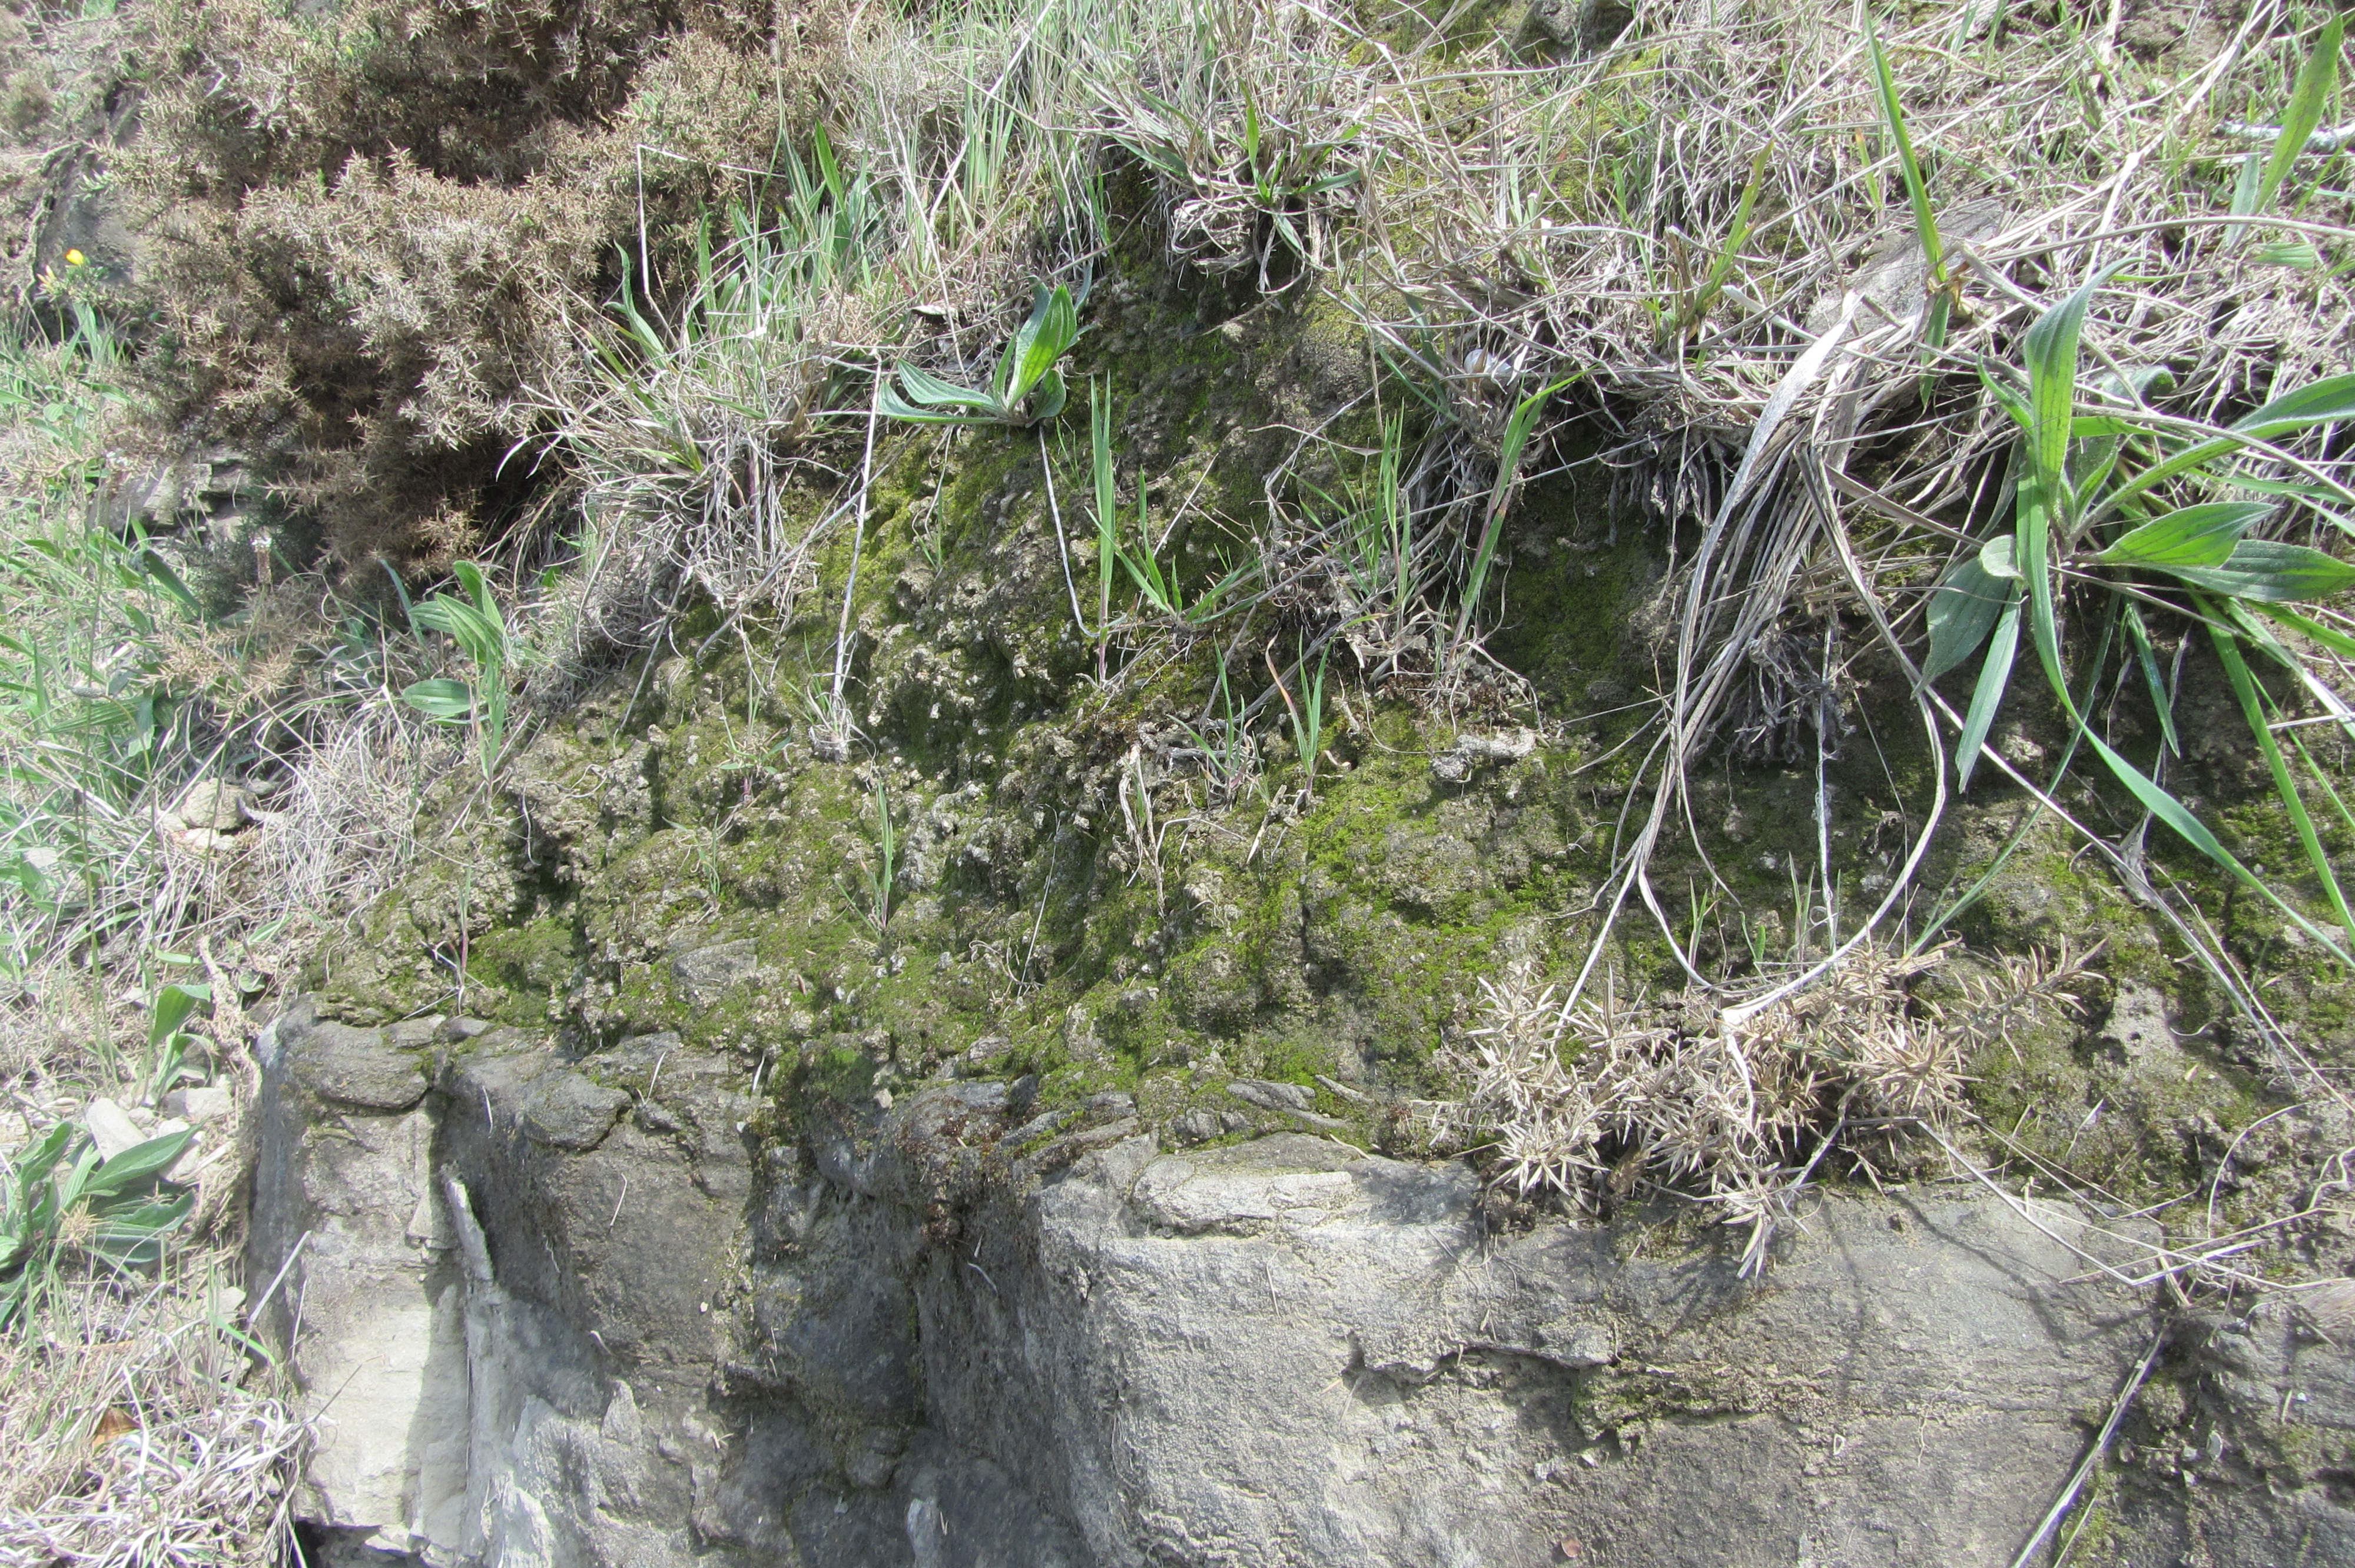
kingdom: Plantae
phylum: Marchantiophyta
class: Jungermanniopsida
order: Fossombroniales
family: Fossombroniaceae
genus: Fossombronia
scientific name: Fossombronia
